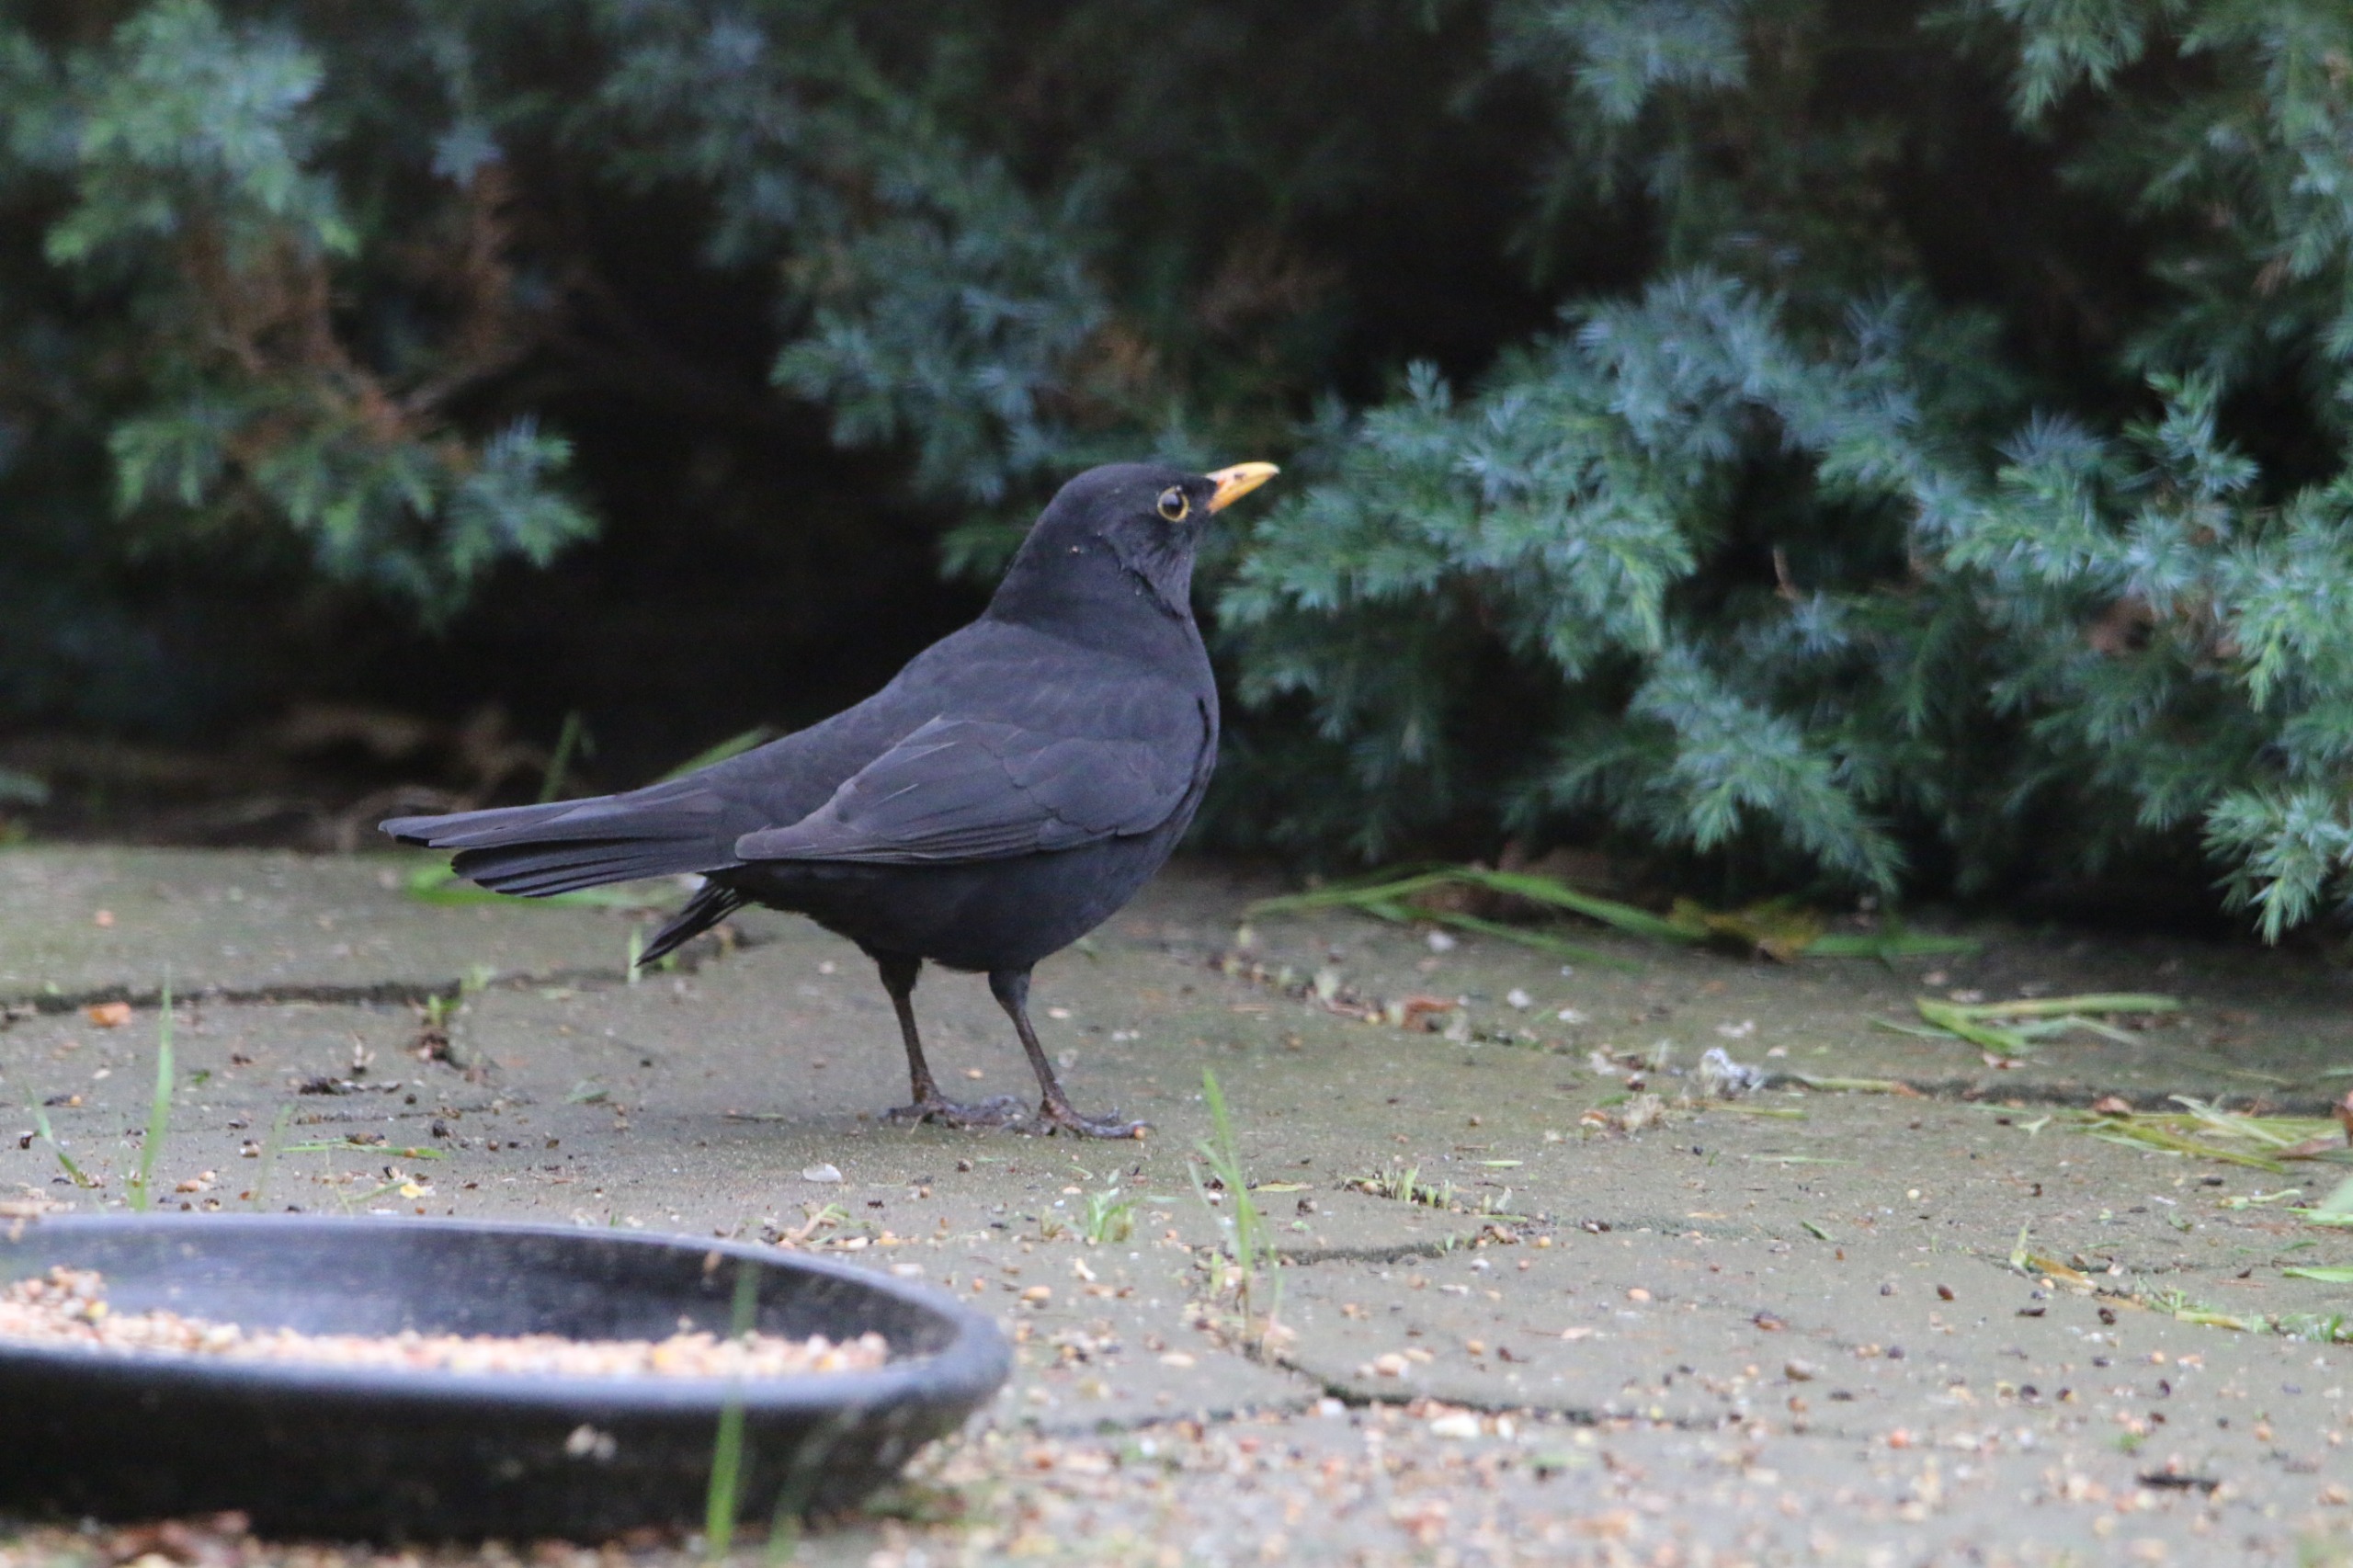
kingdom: Animalia
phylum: Chordata
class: Aves
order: Passeriformes
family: Turdidae
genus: Turdus
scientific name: Turdus merula
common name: Solsort
